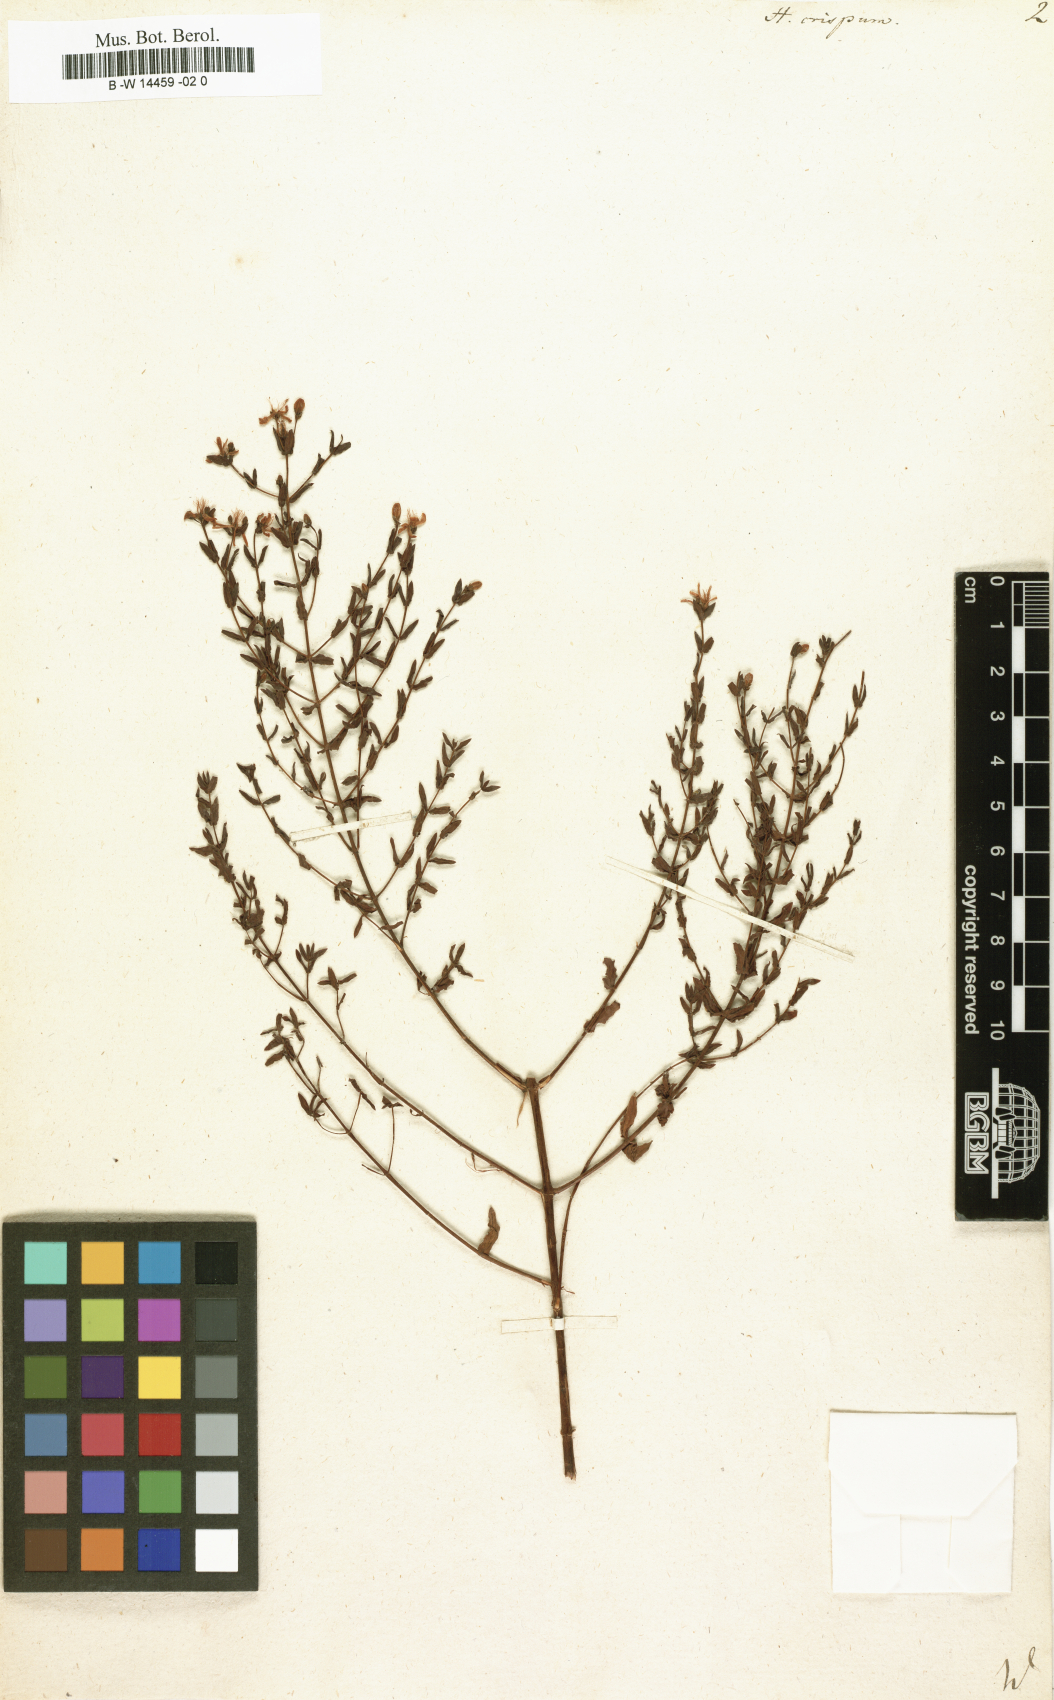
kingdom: Plantae
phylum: Tracheophyta
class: Magnoliopsida
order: Malpighiales
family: Hypericaceae
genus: Hypericum
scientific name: Hypericum triquetrifolium
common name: Tangled hypericum
